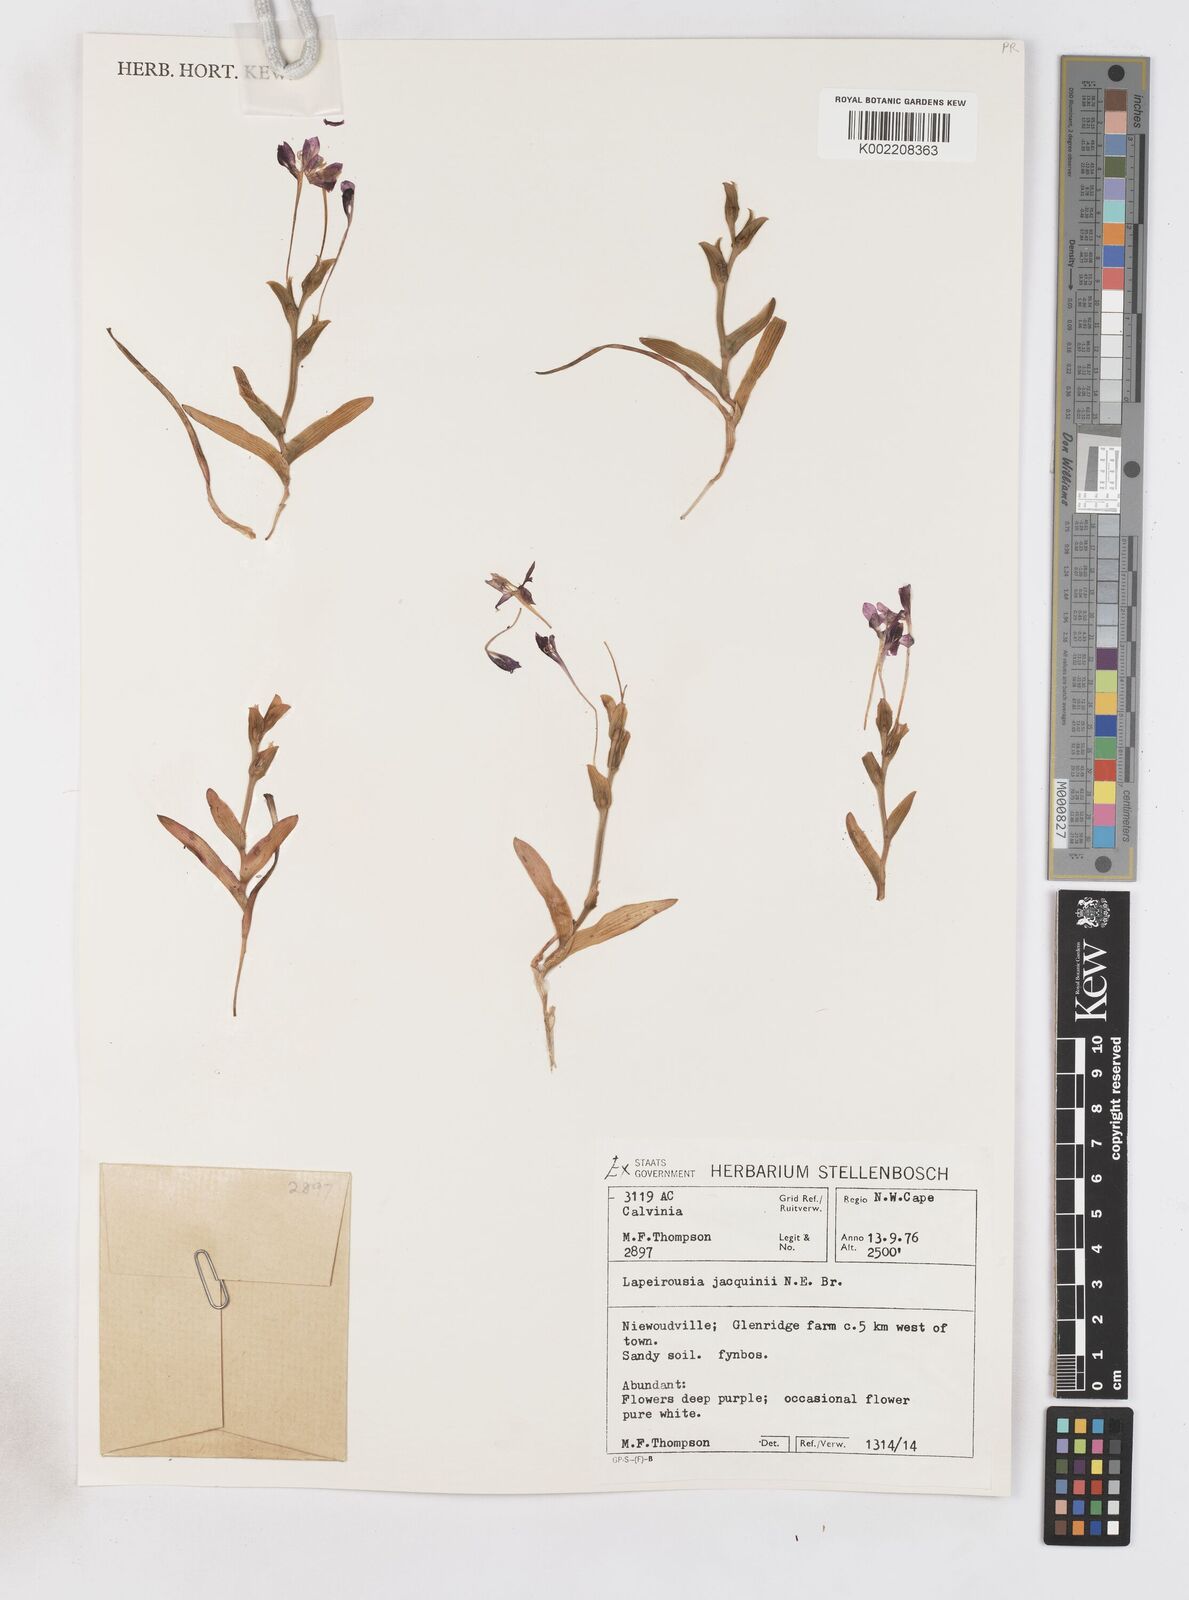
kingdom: Plantae
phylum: Tracheophyta
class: Liliopsida
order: Asparagales
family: Iridaceae
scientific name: Iridaceae
